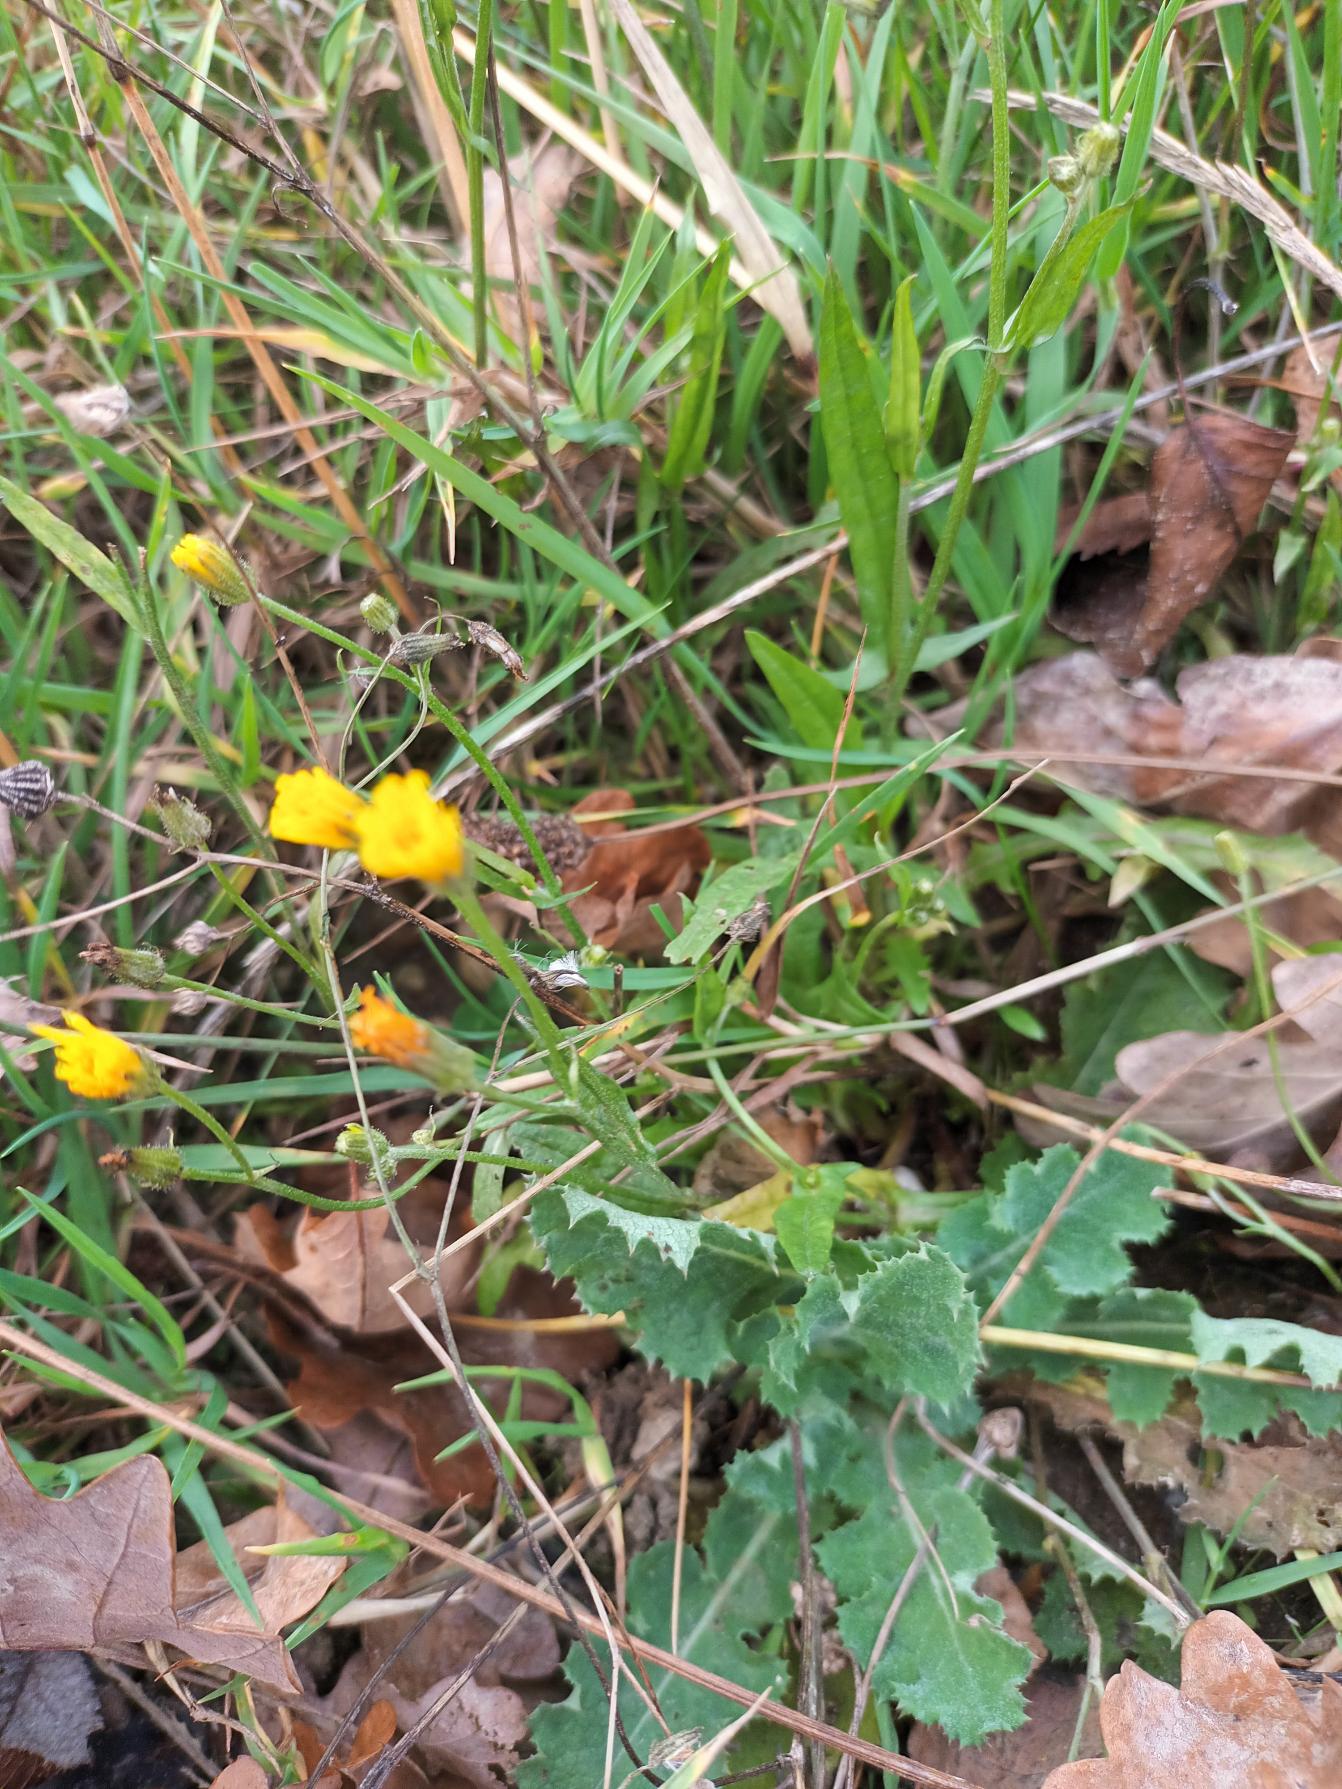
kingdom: Plantae
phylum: Tracheophyta
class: Magnoliopsida
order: Asterales
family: Asteraceae
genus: Crepis
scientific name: Crepis capillaris
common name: Grøn høgeskæg
